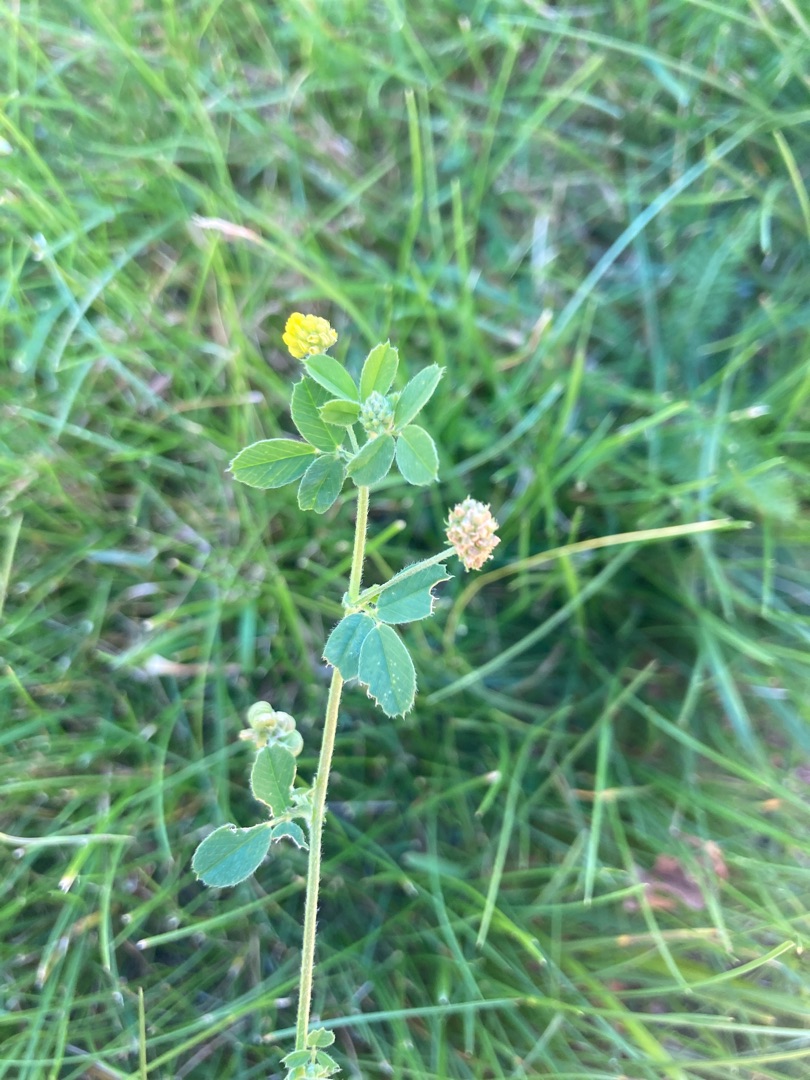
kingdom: Plantae
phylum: Tracheophyta
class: Magnoliopsida
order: Fabales
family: Fabaceae
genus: Medicago
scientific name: Medicago lupulina
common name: Humle-sneglebælg
